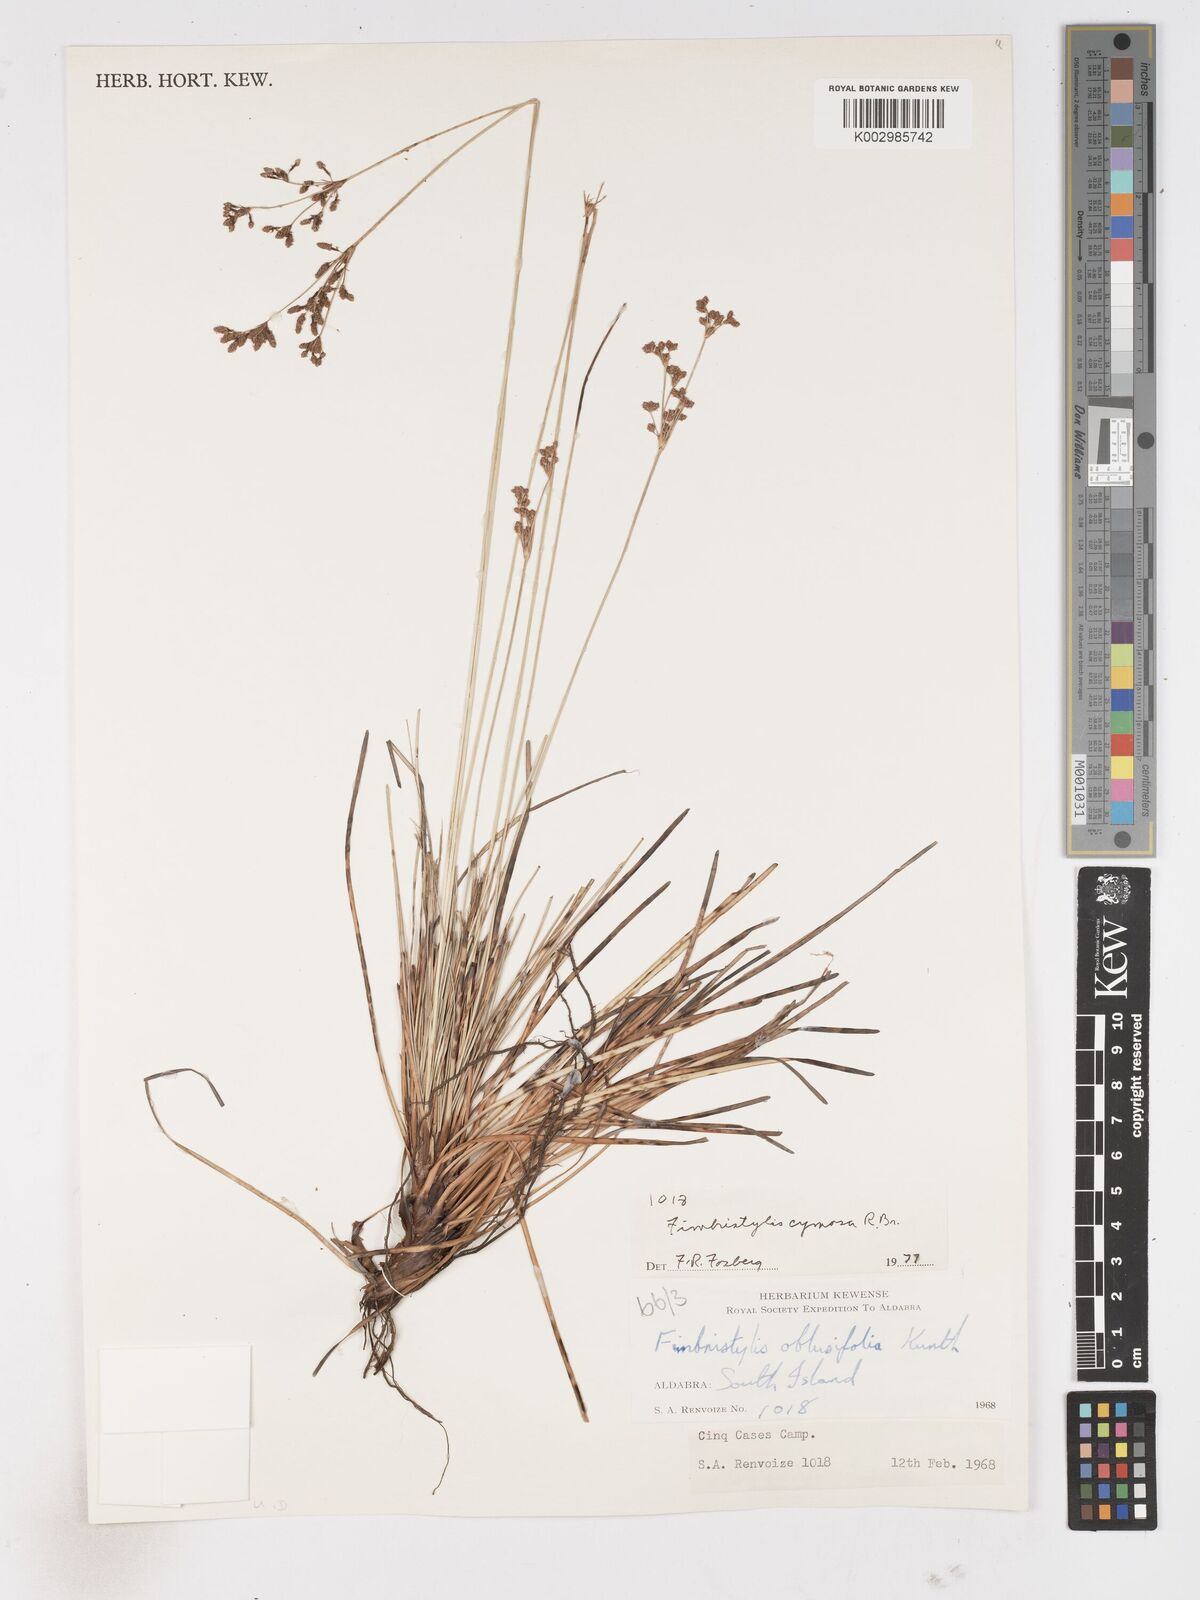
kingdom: Plantae
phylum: Tracheophyta
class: Liliopsida
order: Poales
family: Cyperaceae
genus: Fimbristylis
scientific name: Fimbristylis cymosa
